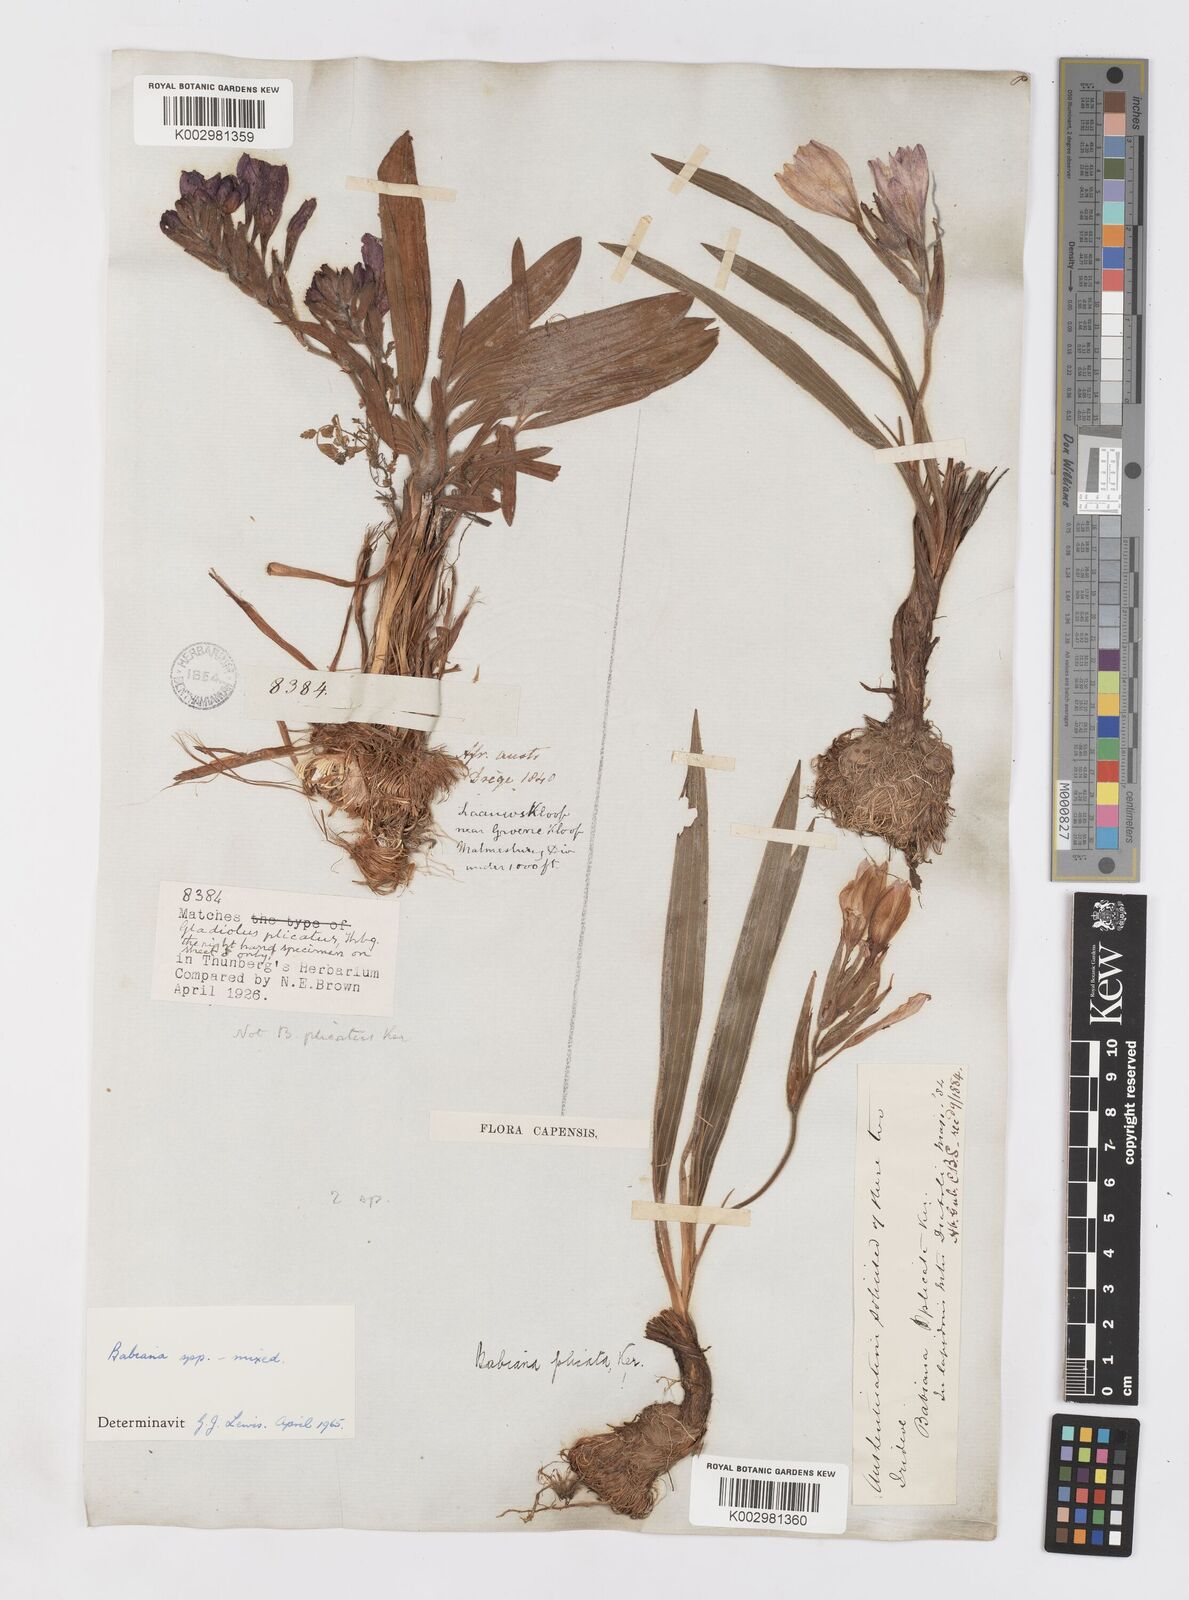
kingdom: Plantae
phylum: Tracheophyta
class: Liliopsida
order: Asparagales
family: Iridaceae
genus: Babiana
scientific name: Babiana
